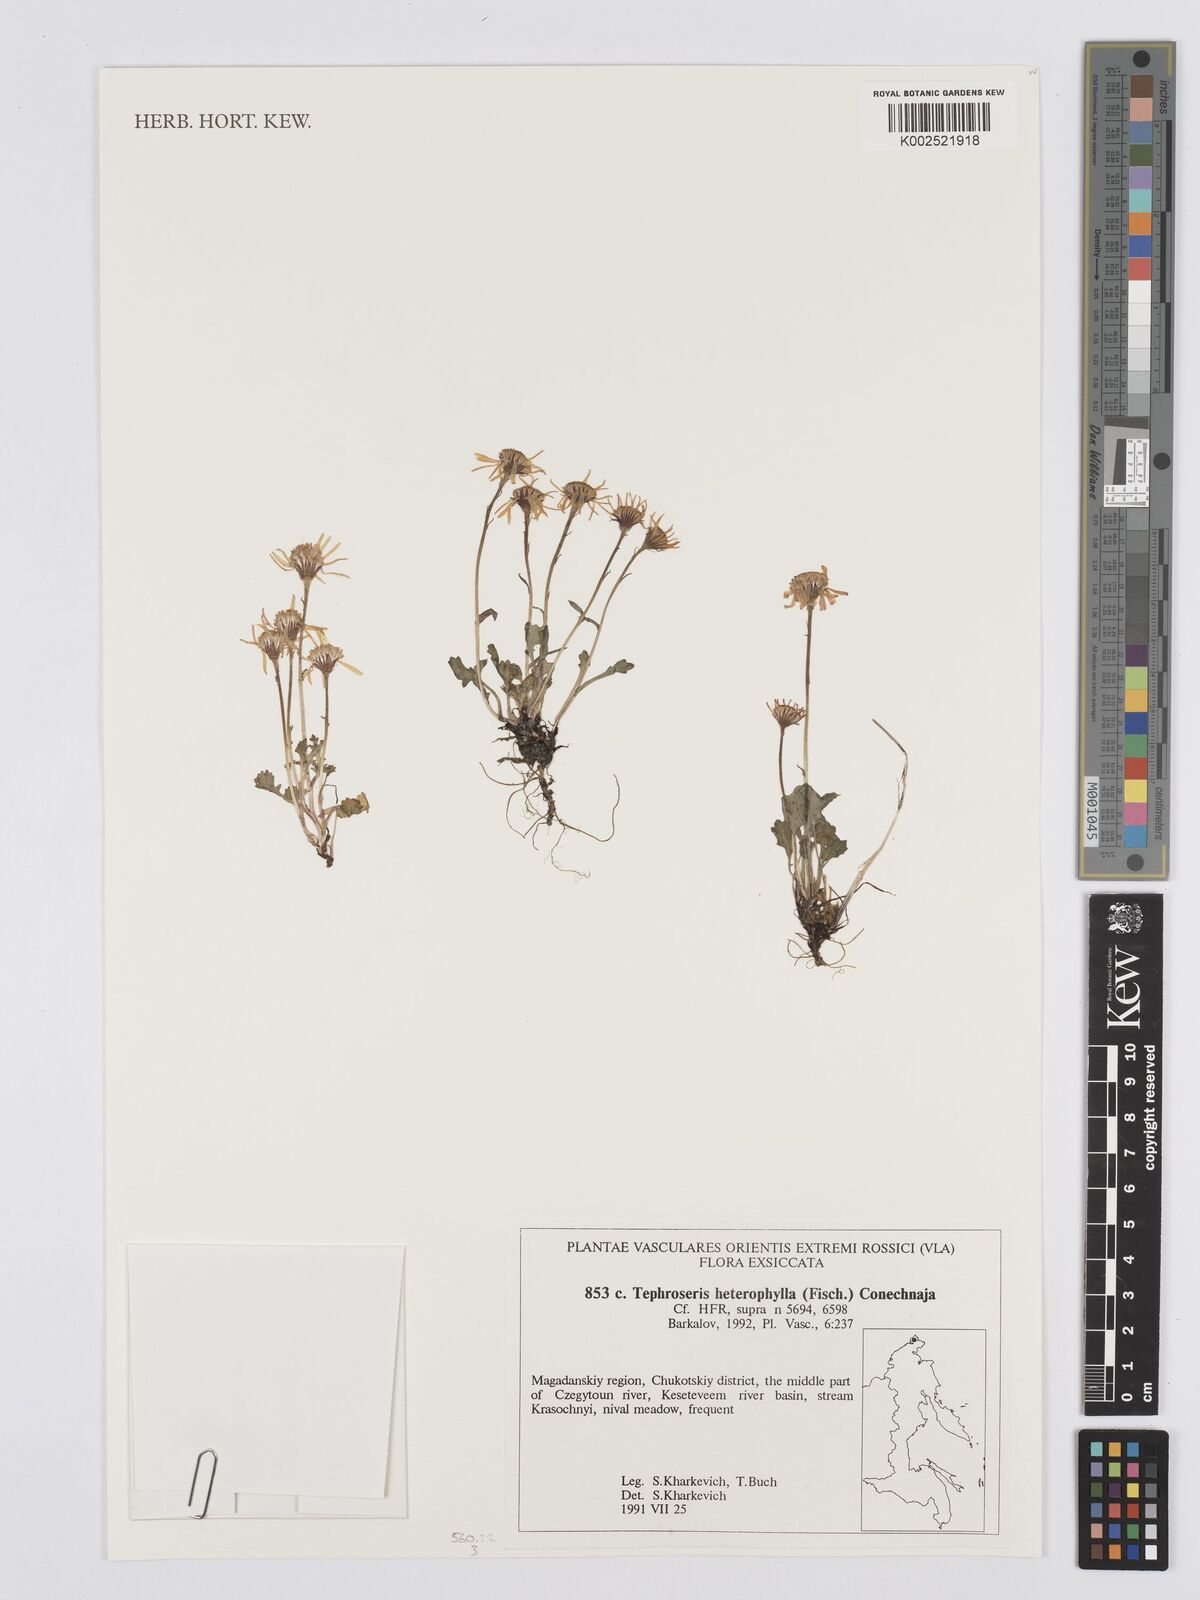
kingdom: Plantae
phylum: Tracheophyta
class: Magnoliopsida
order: Asterales
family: Asteraceae
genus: Packera
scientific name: Packera heterophylla
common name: Arctic butterweed
